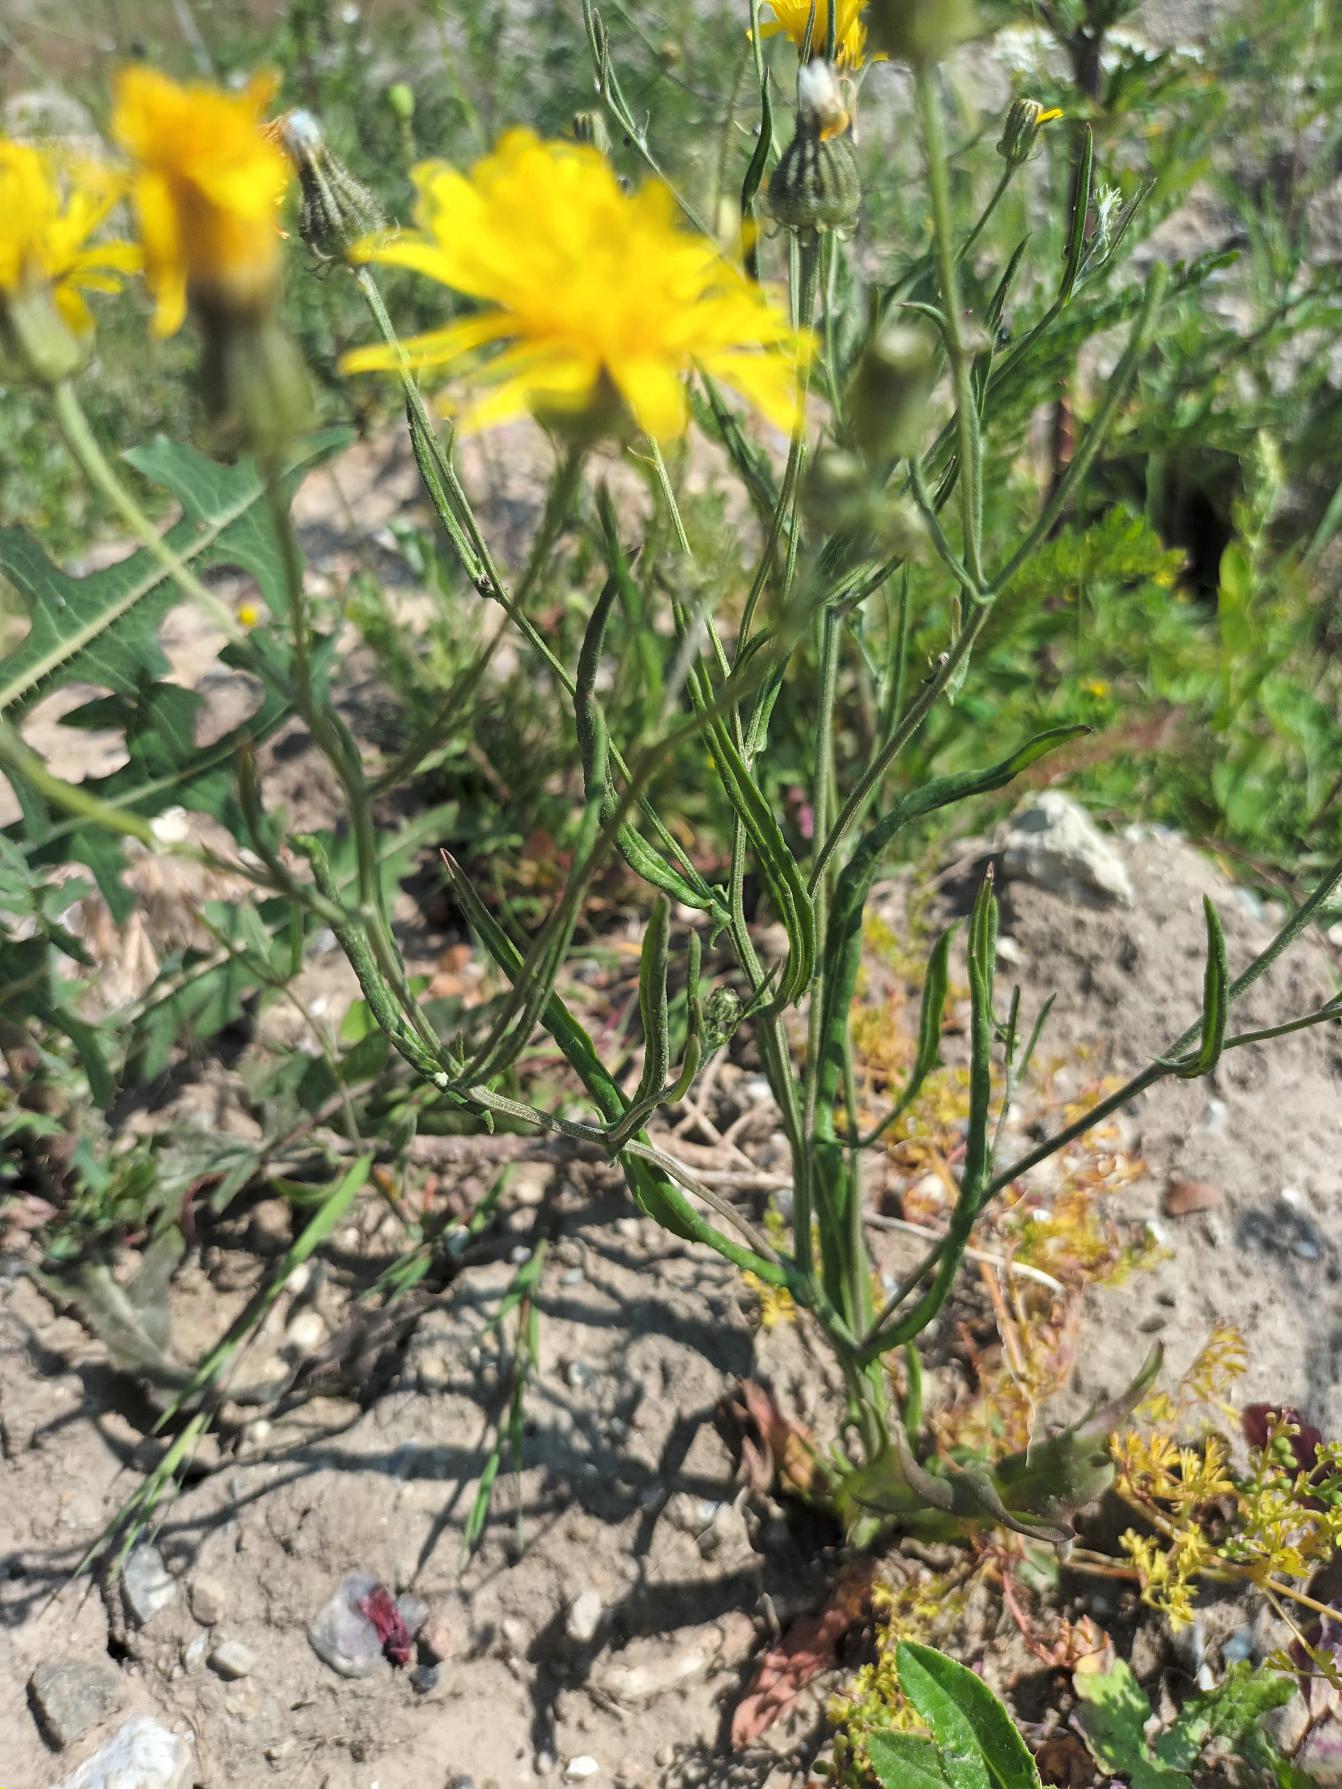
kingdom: Plantae
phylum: Tracheophyta
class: Magnoliopsida
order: Asterales
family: Asteraceae
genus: Crepis
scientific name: Crepis tectorum
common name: Tag-høgeskæg
